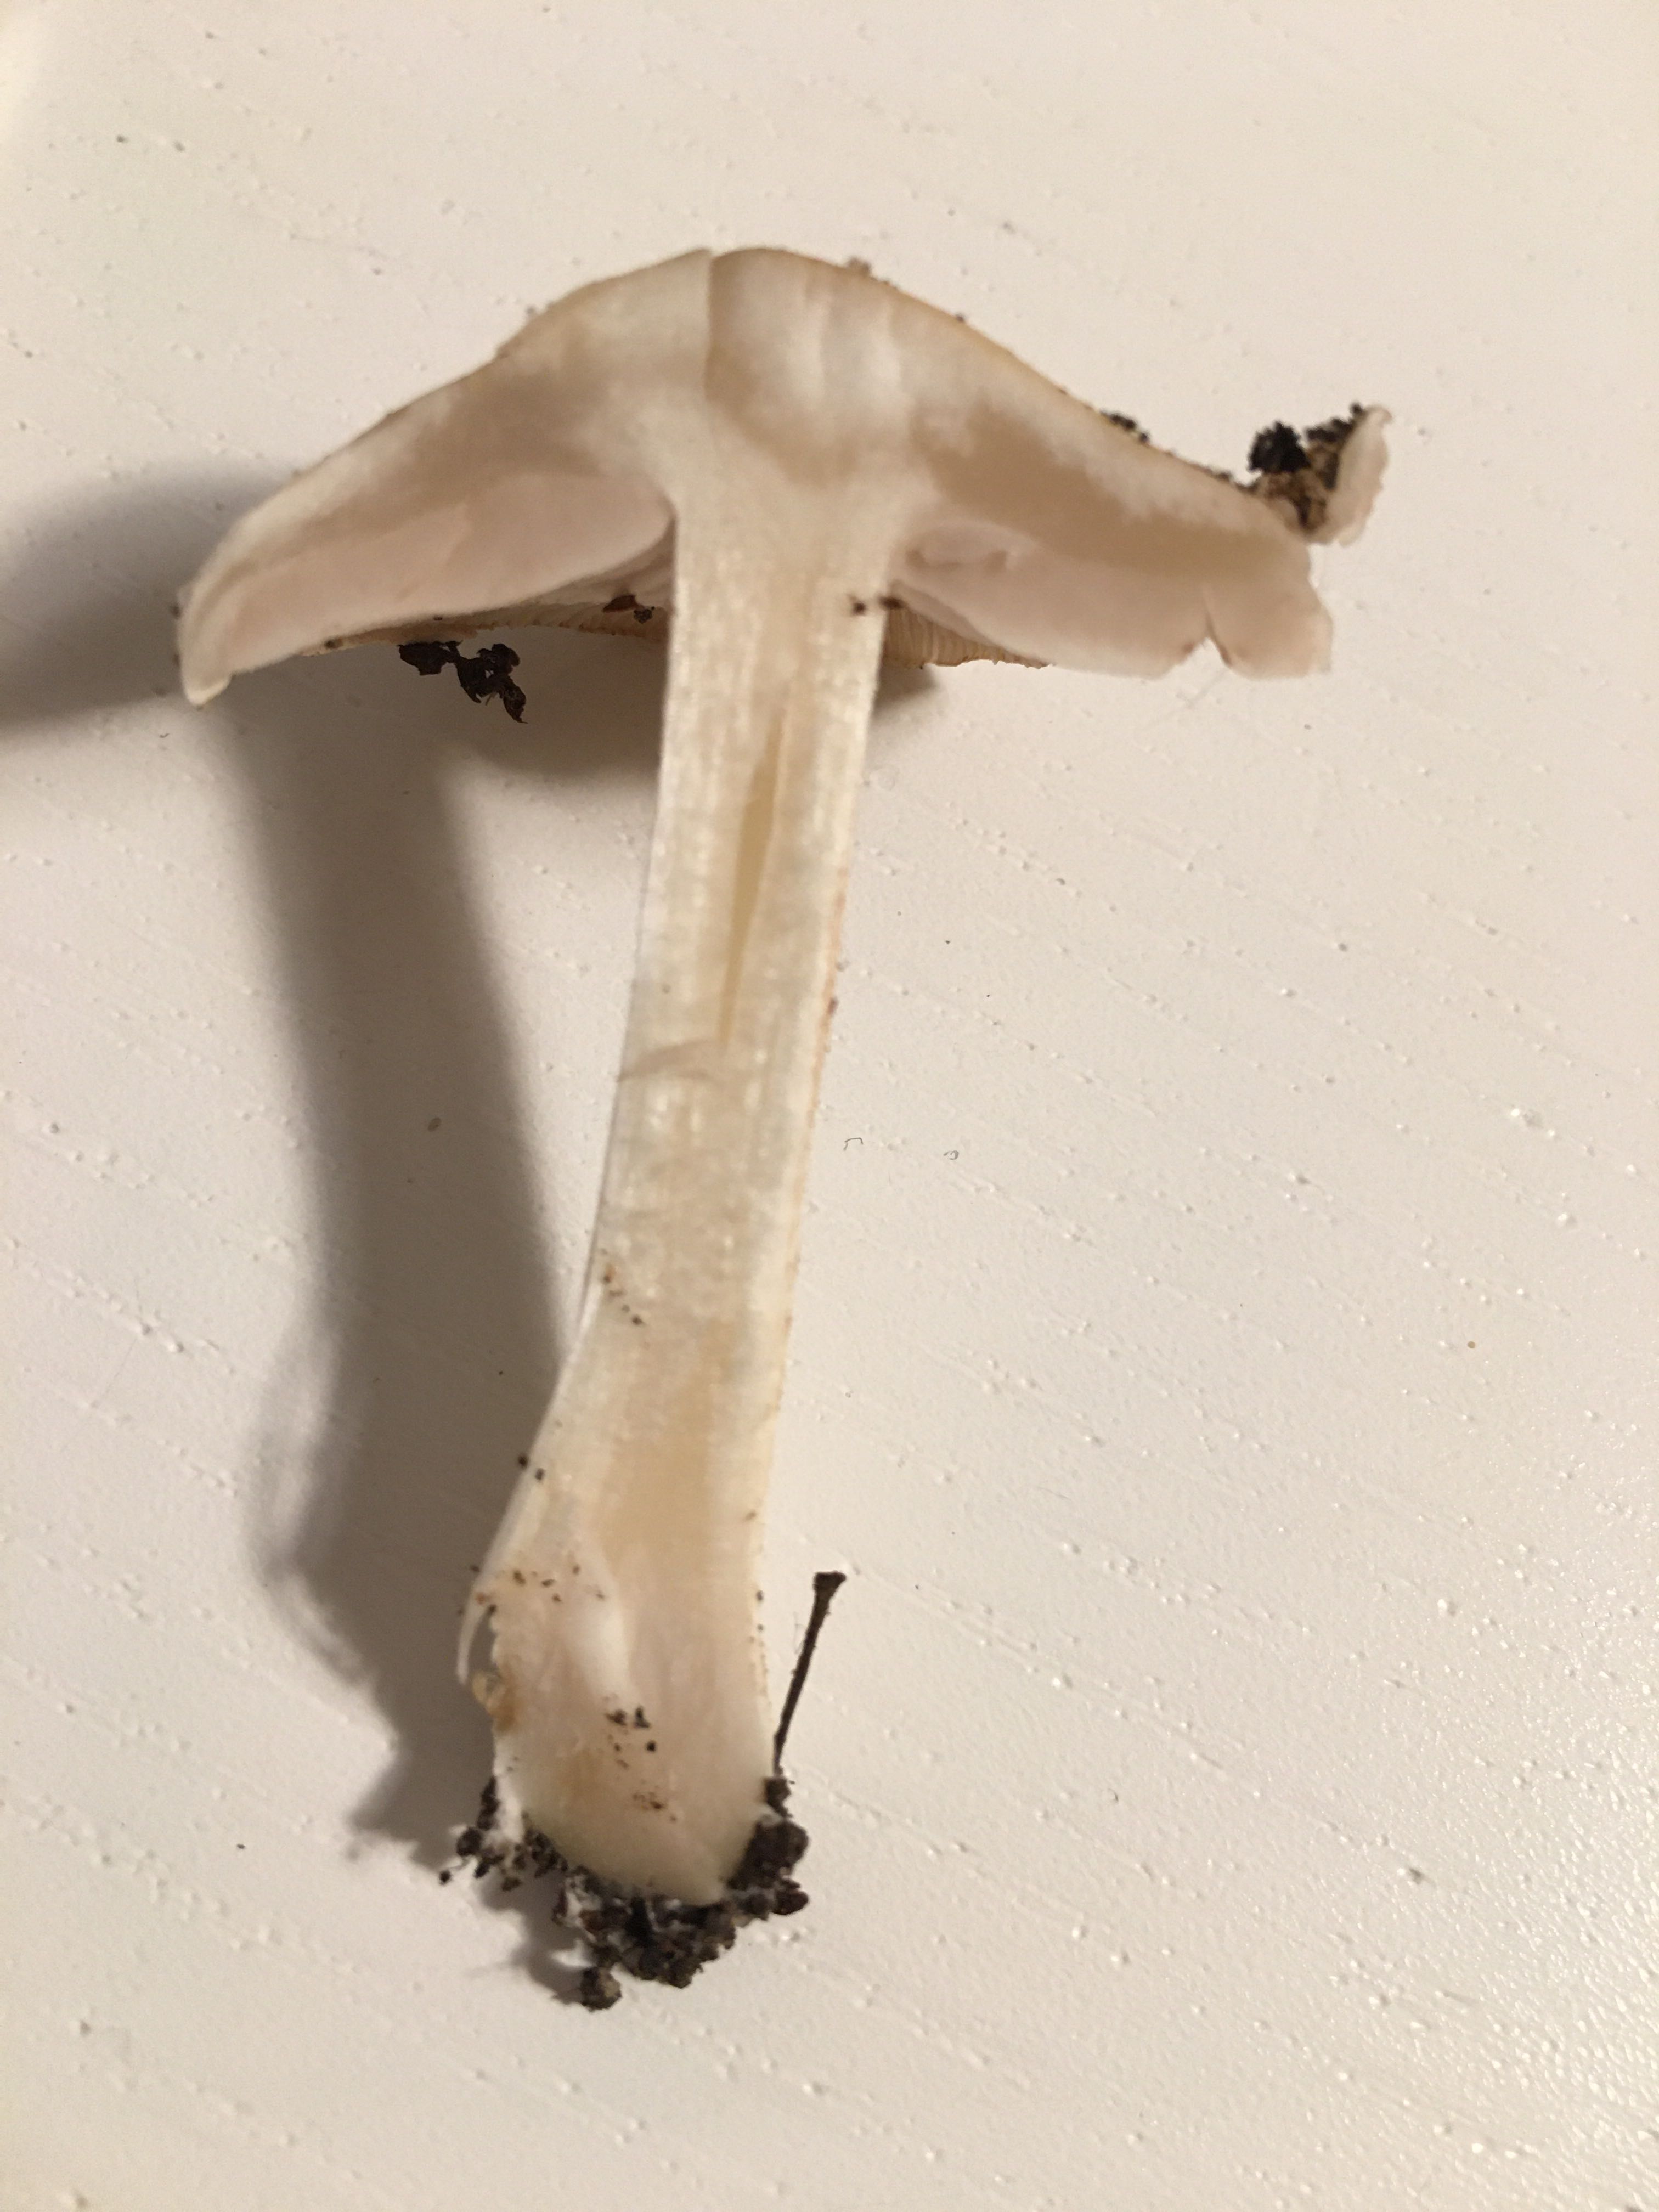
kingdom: Fungi
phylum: Basidiomycota
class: Agaricomycetes
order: Agaricales
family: Hymenogastraceae
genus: Hebeloma
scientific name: Hebeloma
